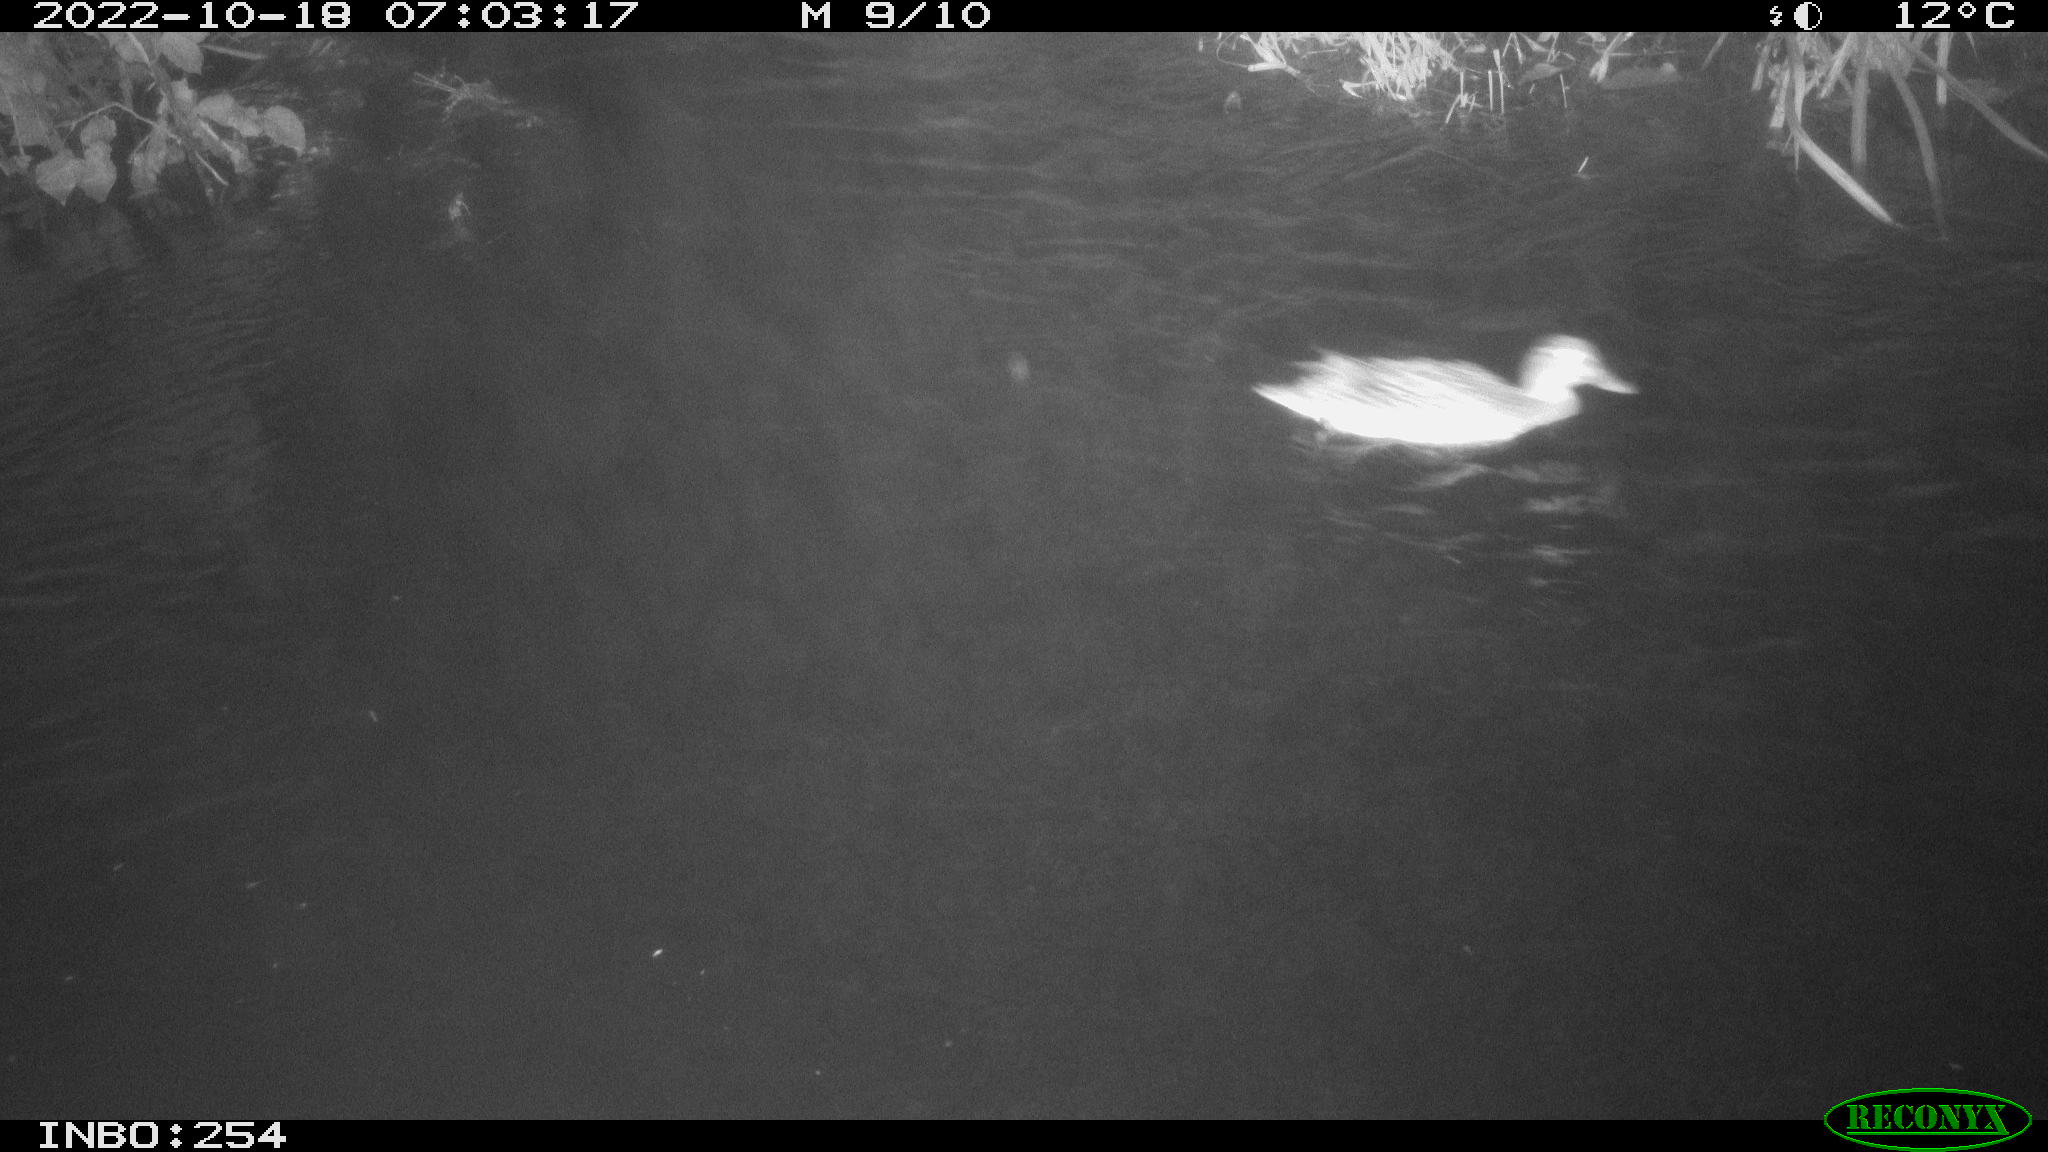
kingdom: Animalia
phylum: Chordata
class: Aves
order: Anseriformes
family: Anatidae
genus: Anas
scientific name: Anas
